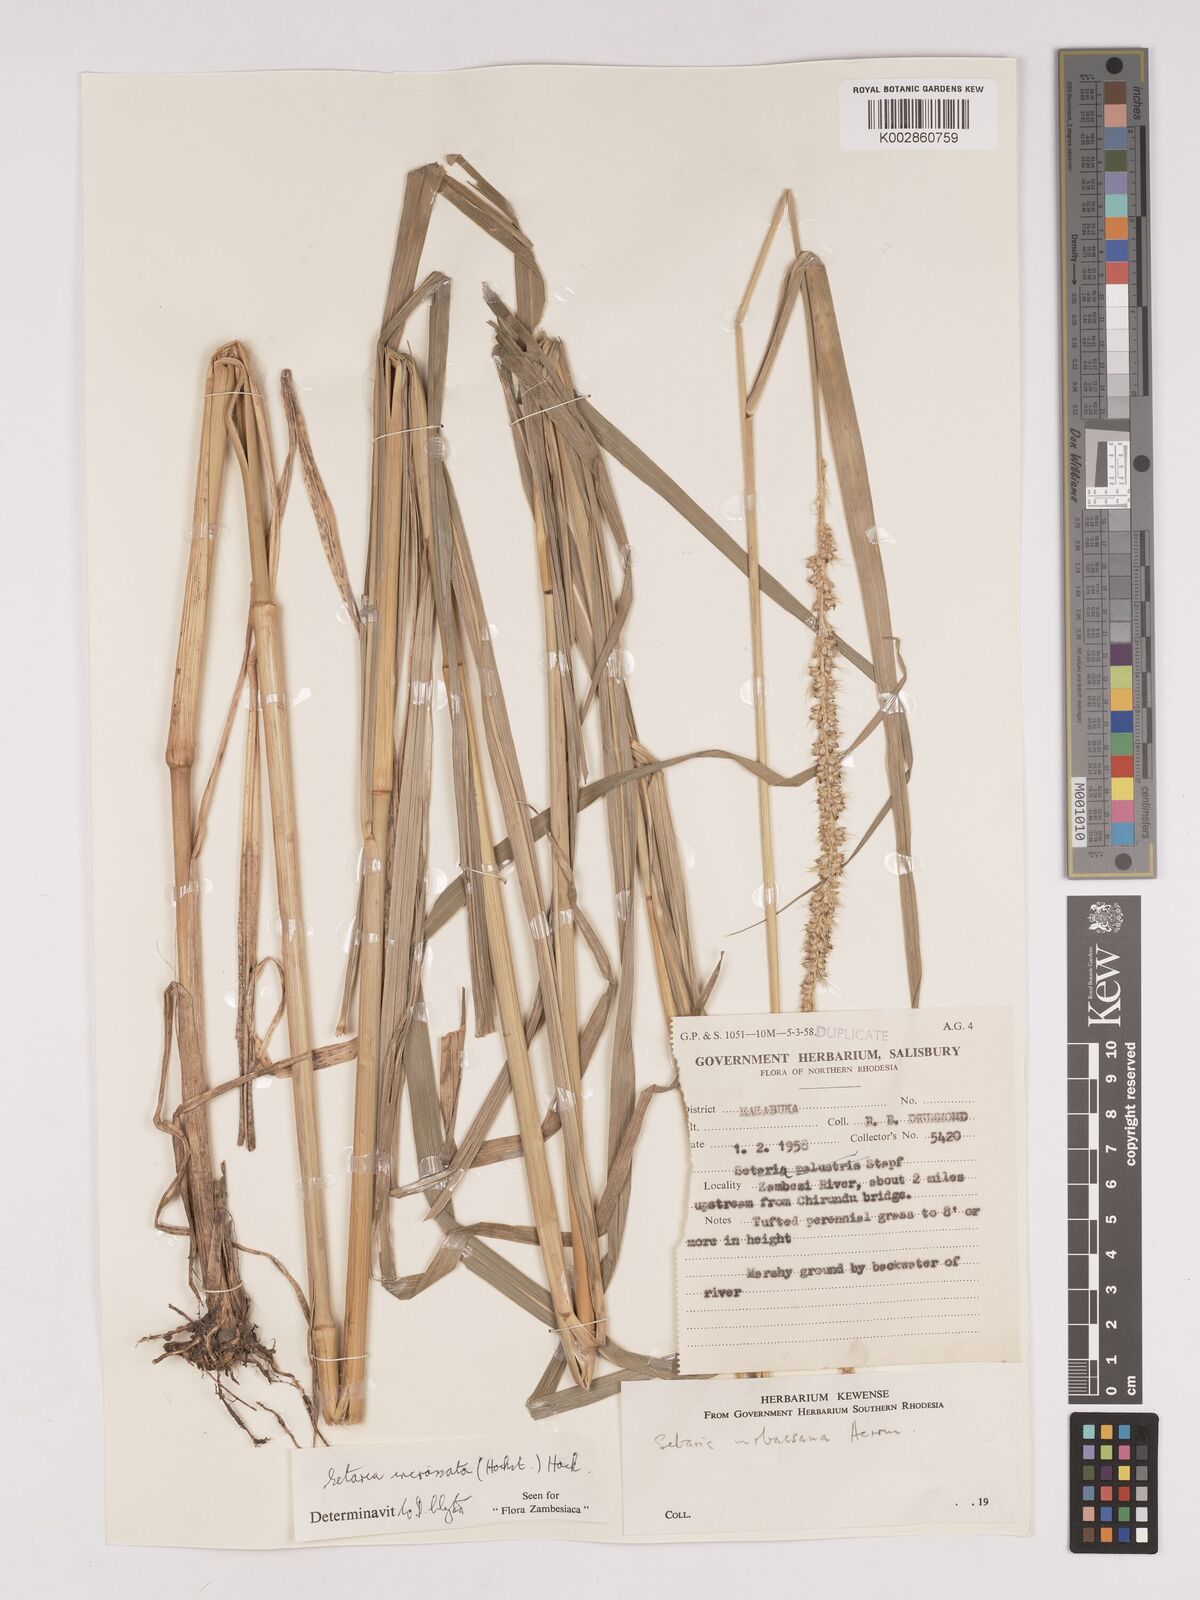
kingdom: Plantae
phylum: Tracheophyta
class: Liliopsida
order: Poales
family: Poaceae
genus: Setaria
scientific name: Setaria incrassata
